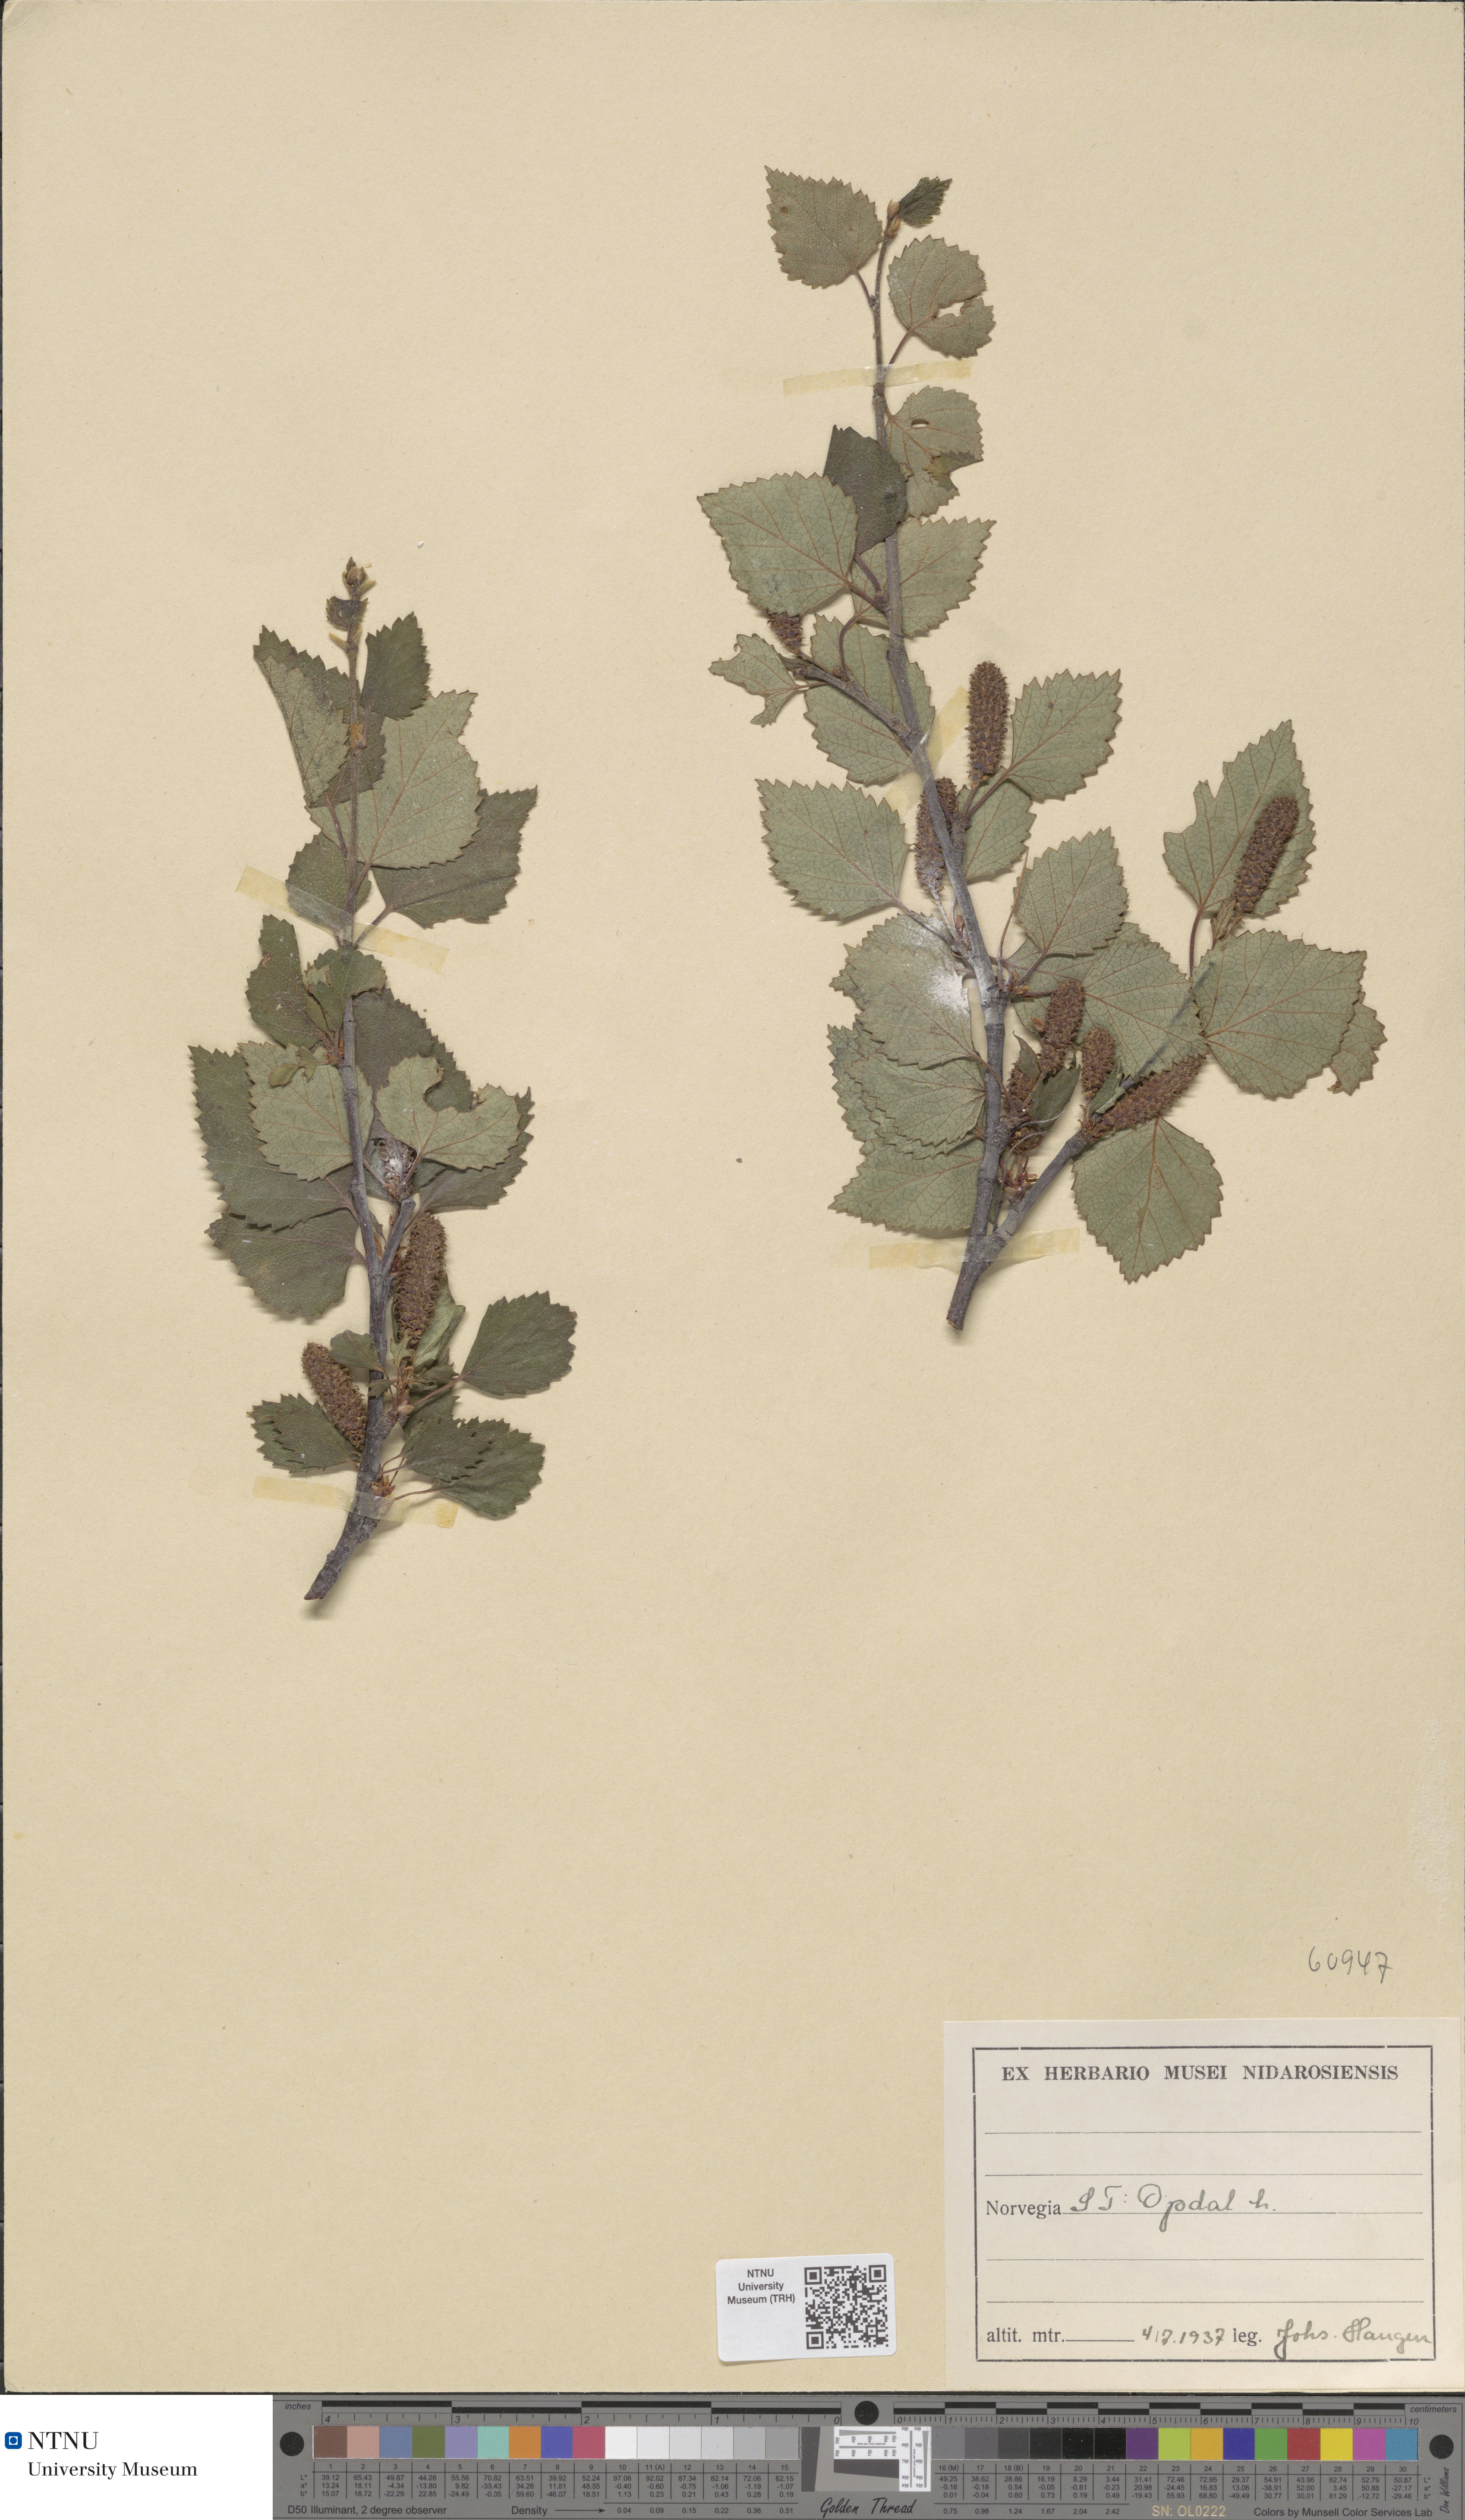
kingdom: Plantae
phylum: Tracheophyta
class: Magnoliopsida
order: Fagales
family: Betulaceae
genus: Betula
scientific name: Betula pubescens
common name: Downy birch
